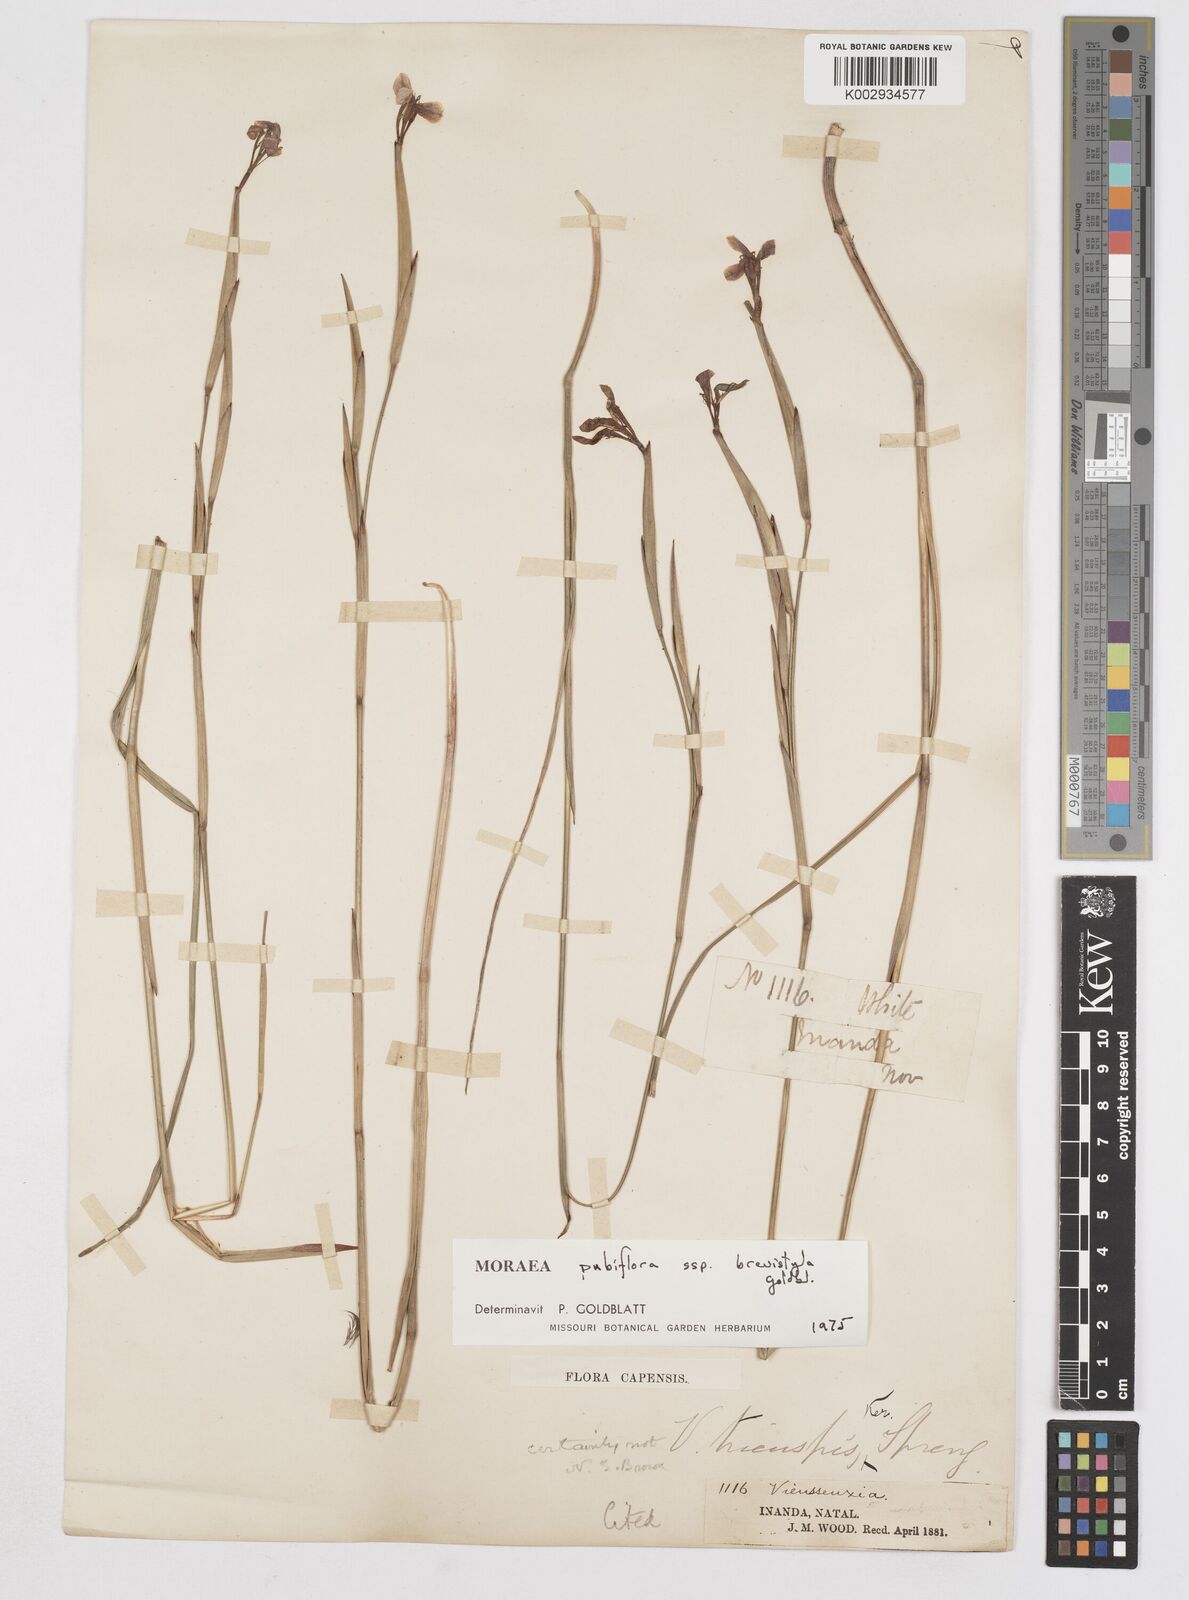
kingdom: Plantae
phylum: Tracheophyta
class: Liliopsida
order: Asparagales
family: Iridaceae
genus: Moraea
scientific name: Moraea brevistyla
